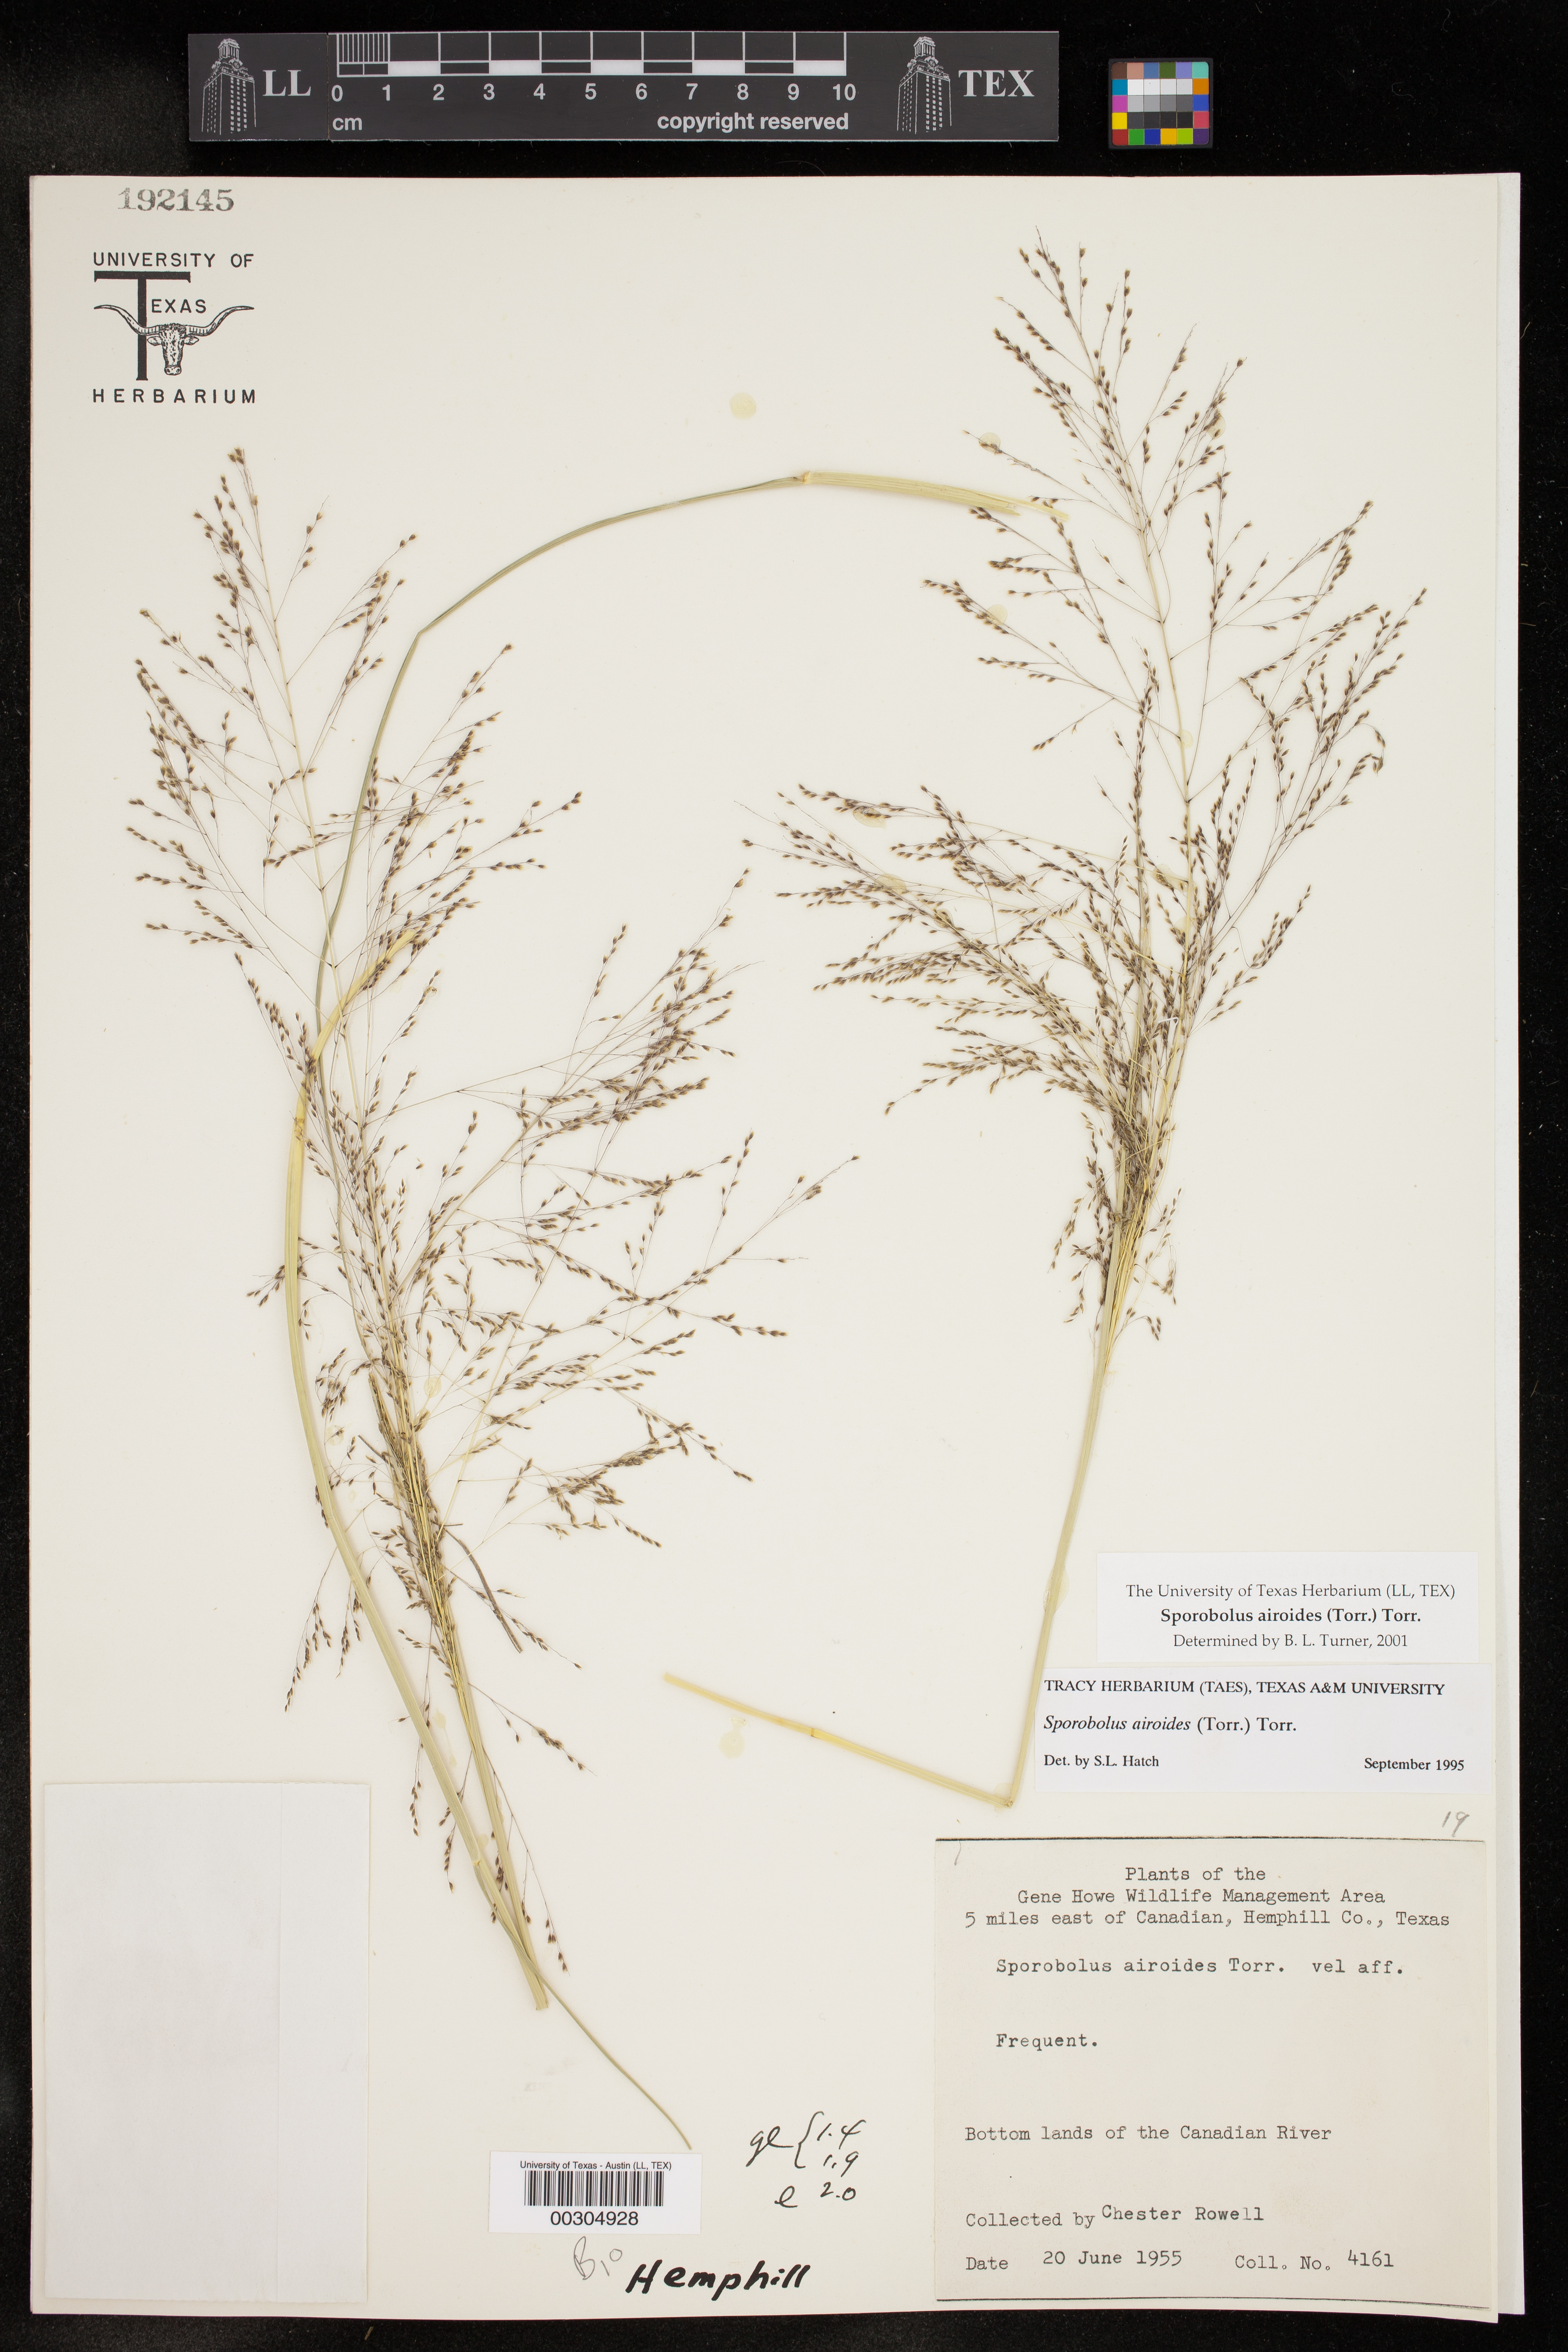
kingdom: Plantae
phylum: Tracheophyta
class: Liliopsida
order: Poales
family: Poaceae
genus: Sporobolus
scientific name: Sporobolus airoides
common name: Alkali sacaton
